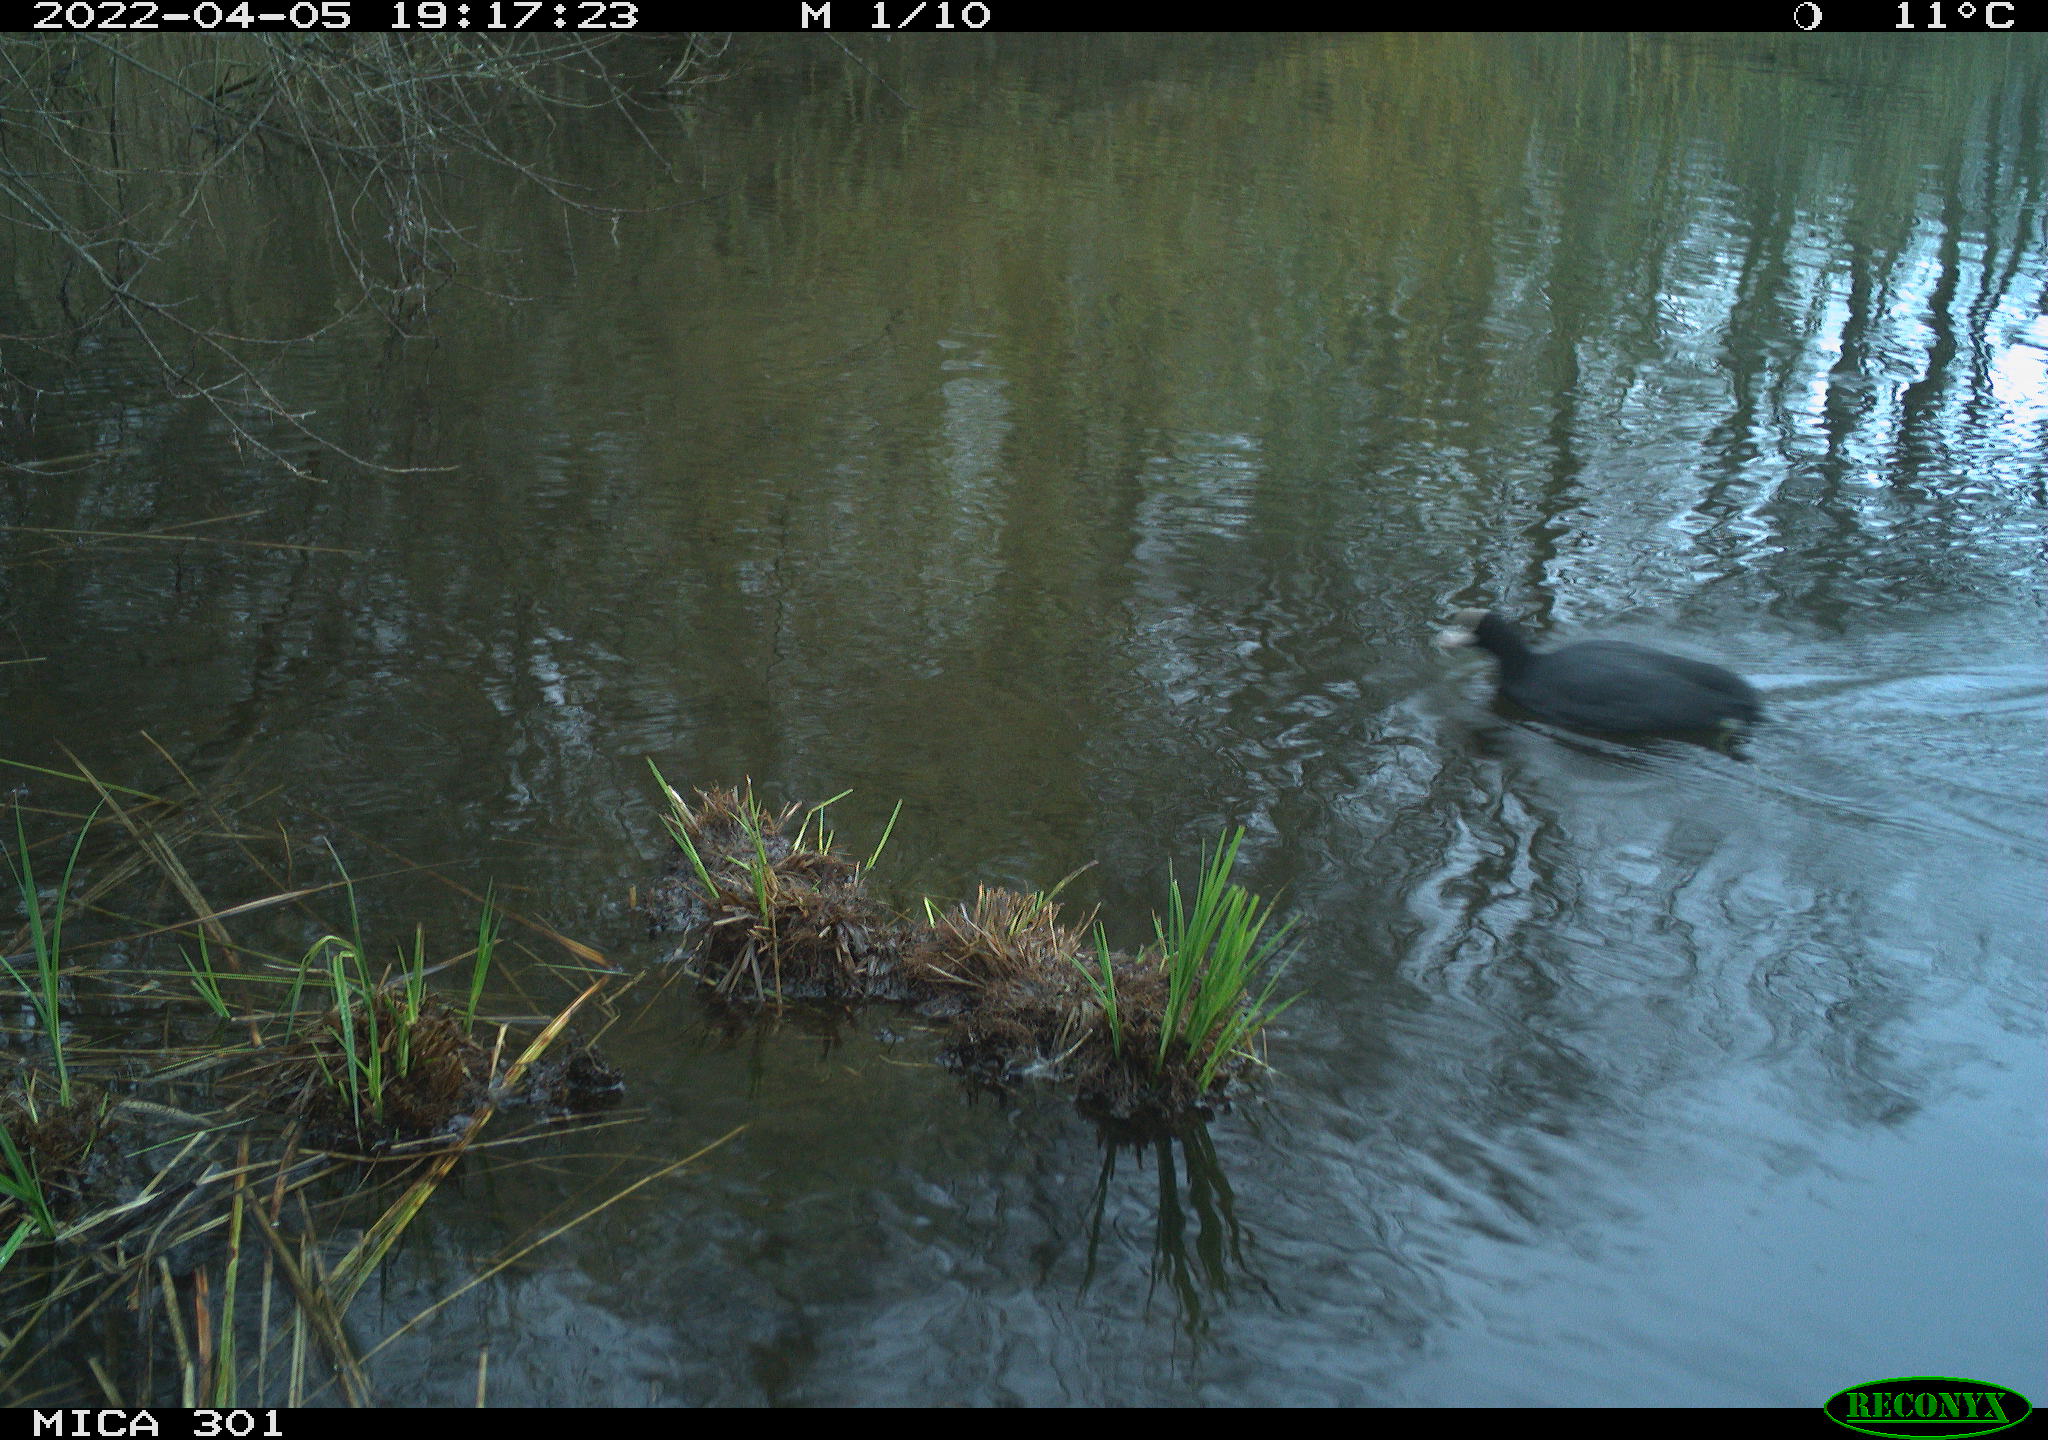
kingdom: Animalia
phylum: Chordata
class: Aves
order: Gruiformes
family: Rallidae
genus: Fulica
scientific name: Fulica atra
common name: Eurasian coot
